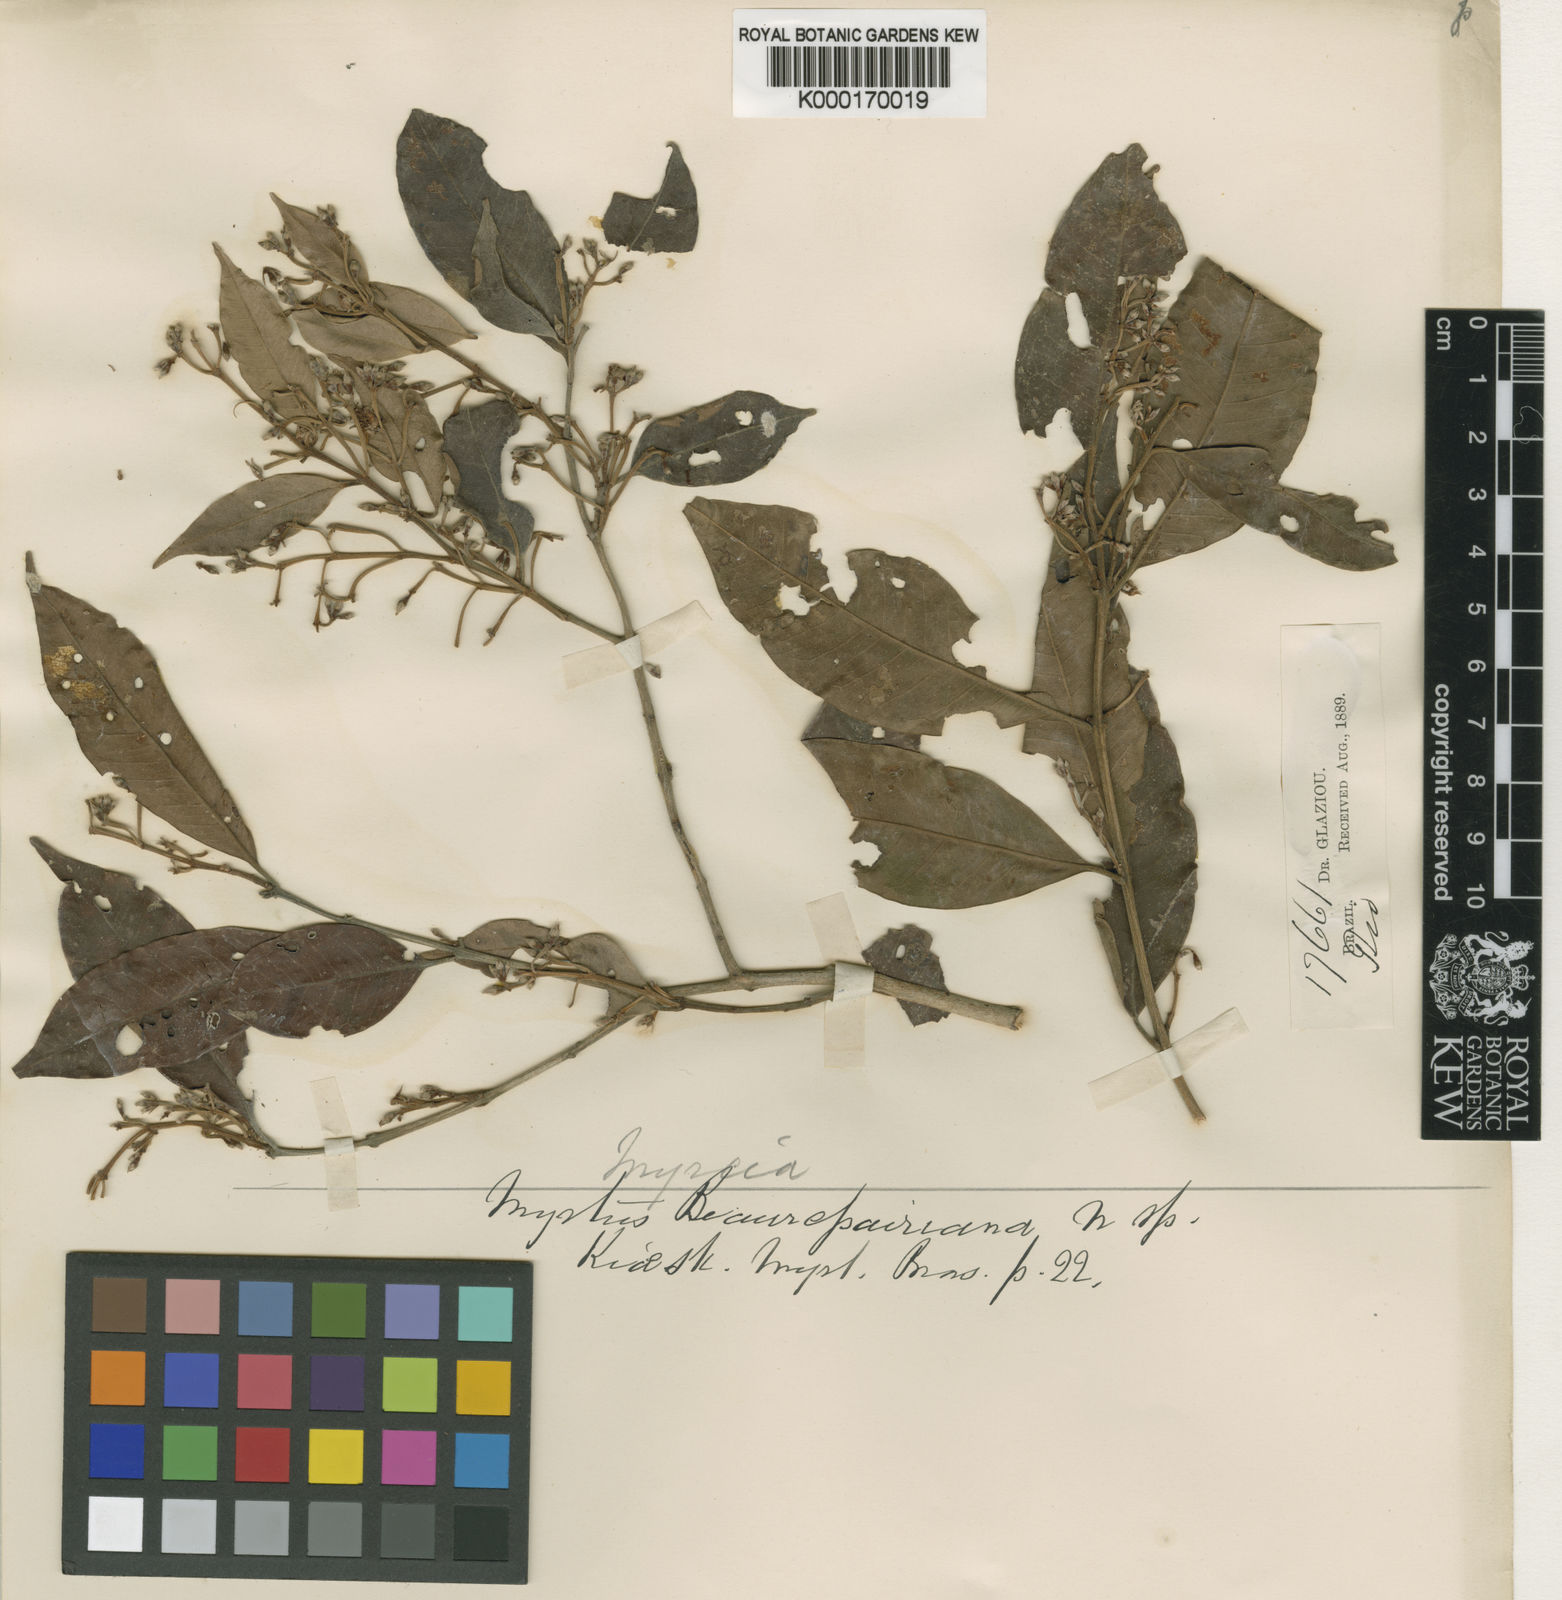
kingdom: Plantae
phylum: Tracheophyta
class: Magnoliopsida
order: Myrtales
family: Myrtaceae
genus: Eugenia
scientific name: Eugenia ternatifolia
